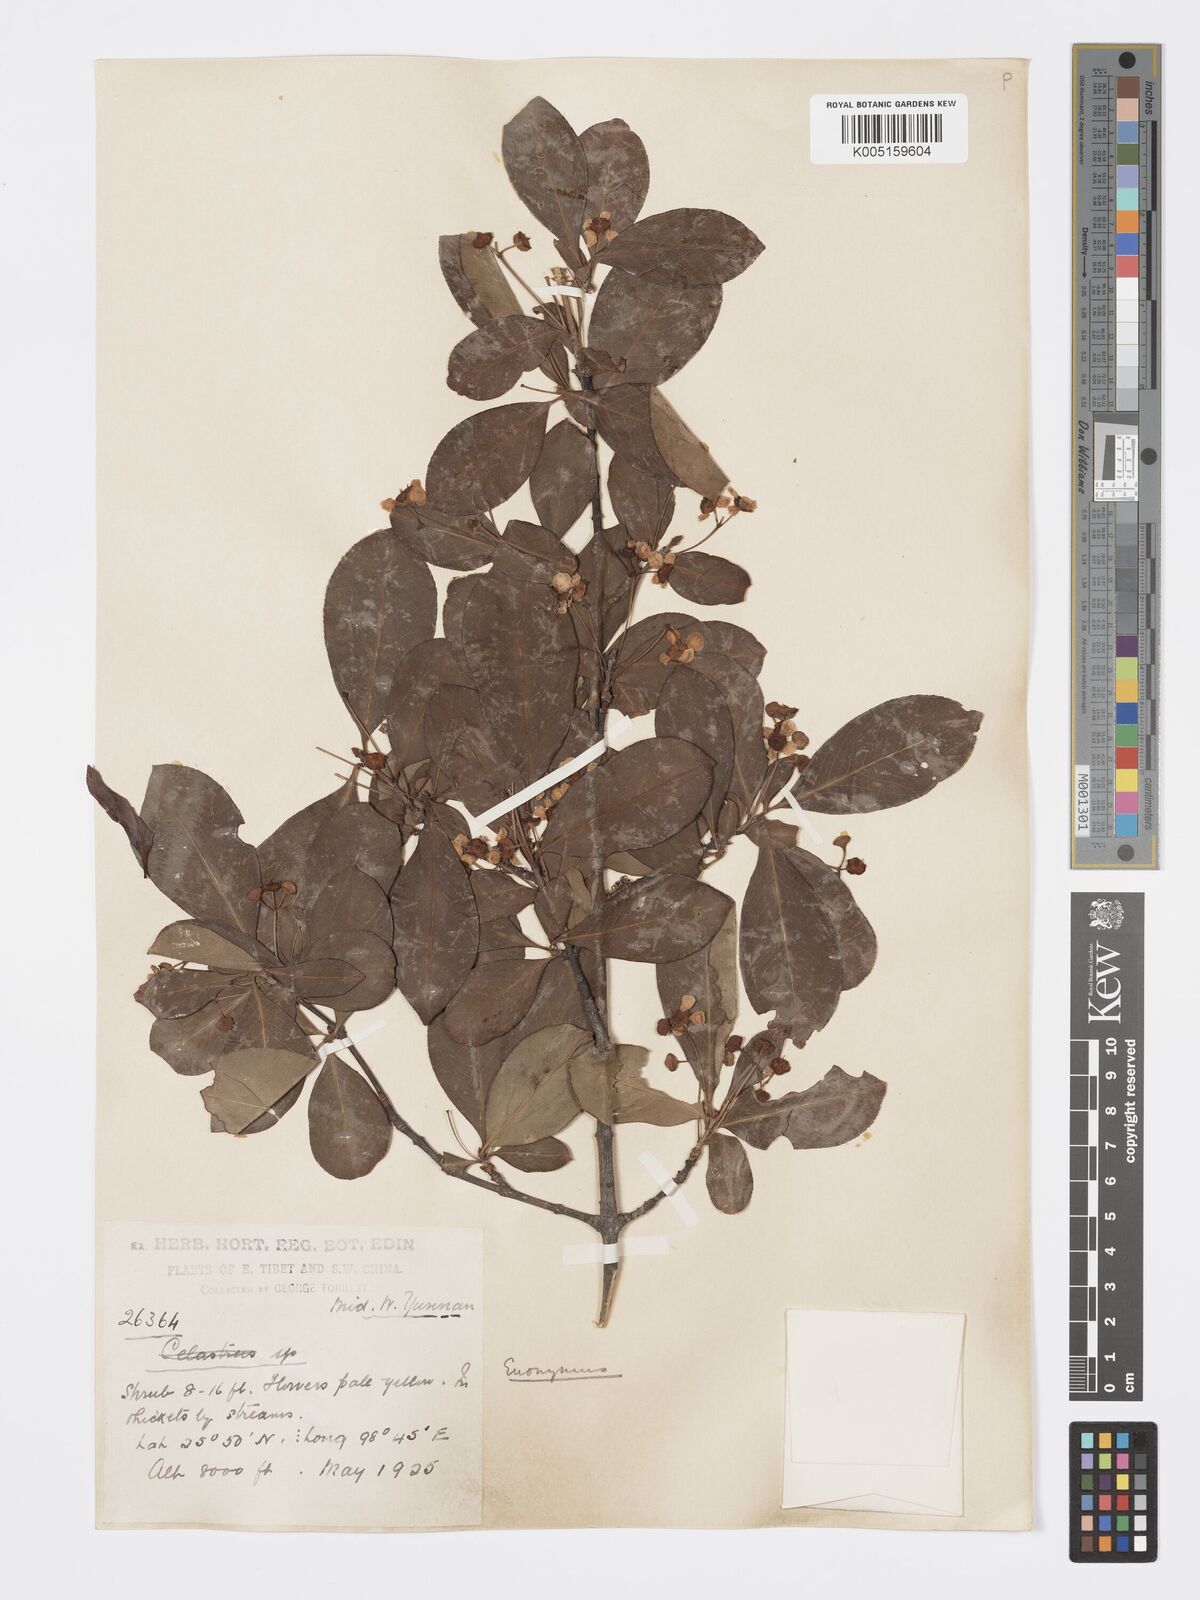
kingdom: Plantae
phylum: Tracheophyta
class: Magnoliopsida
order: Celastrales
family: Celastraceae
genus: Euonymus
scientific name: Euonymus grandiflorus
